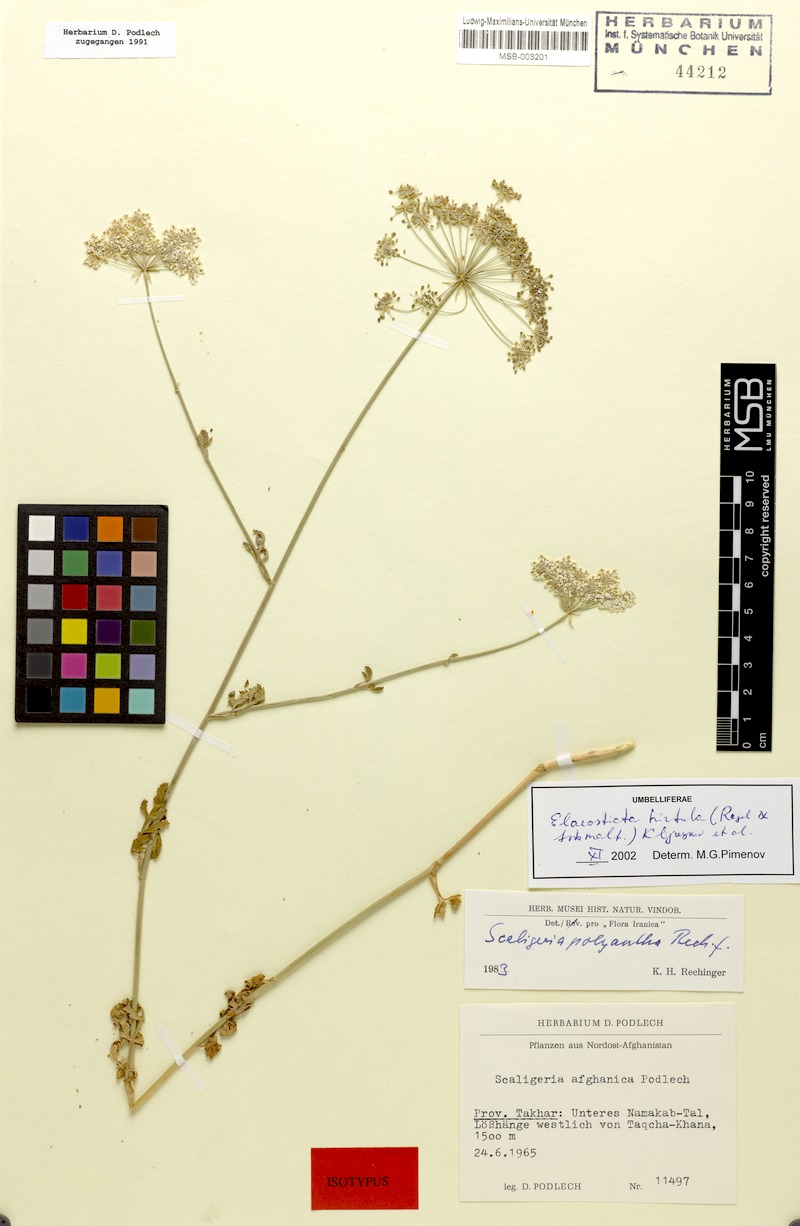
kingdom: Plantae
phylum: Tracheophyta
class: Magnoliopsida
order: Apiales
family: Apiaceae
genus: Scaligeria
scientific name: Scaligeria hirtula
